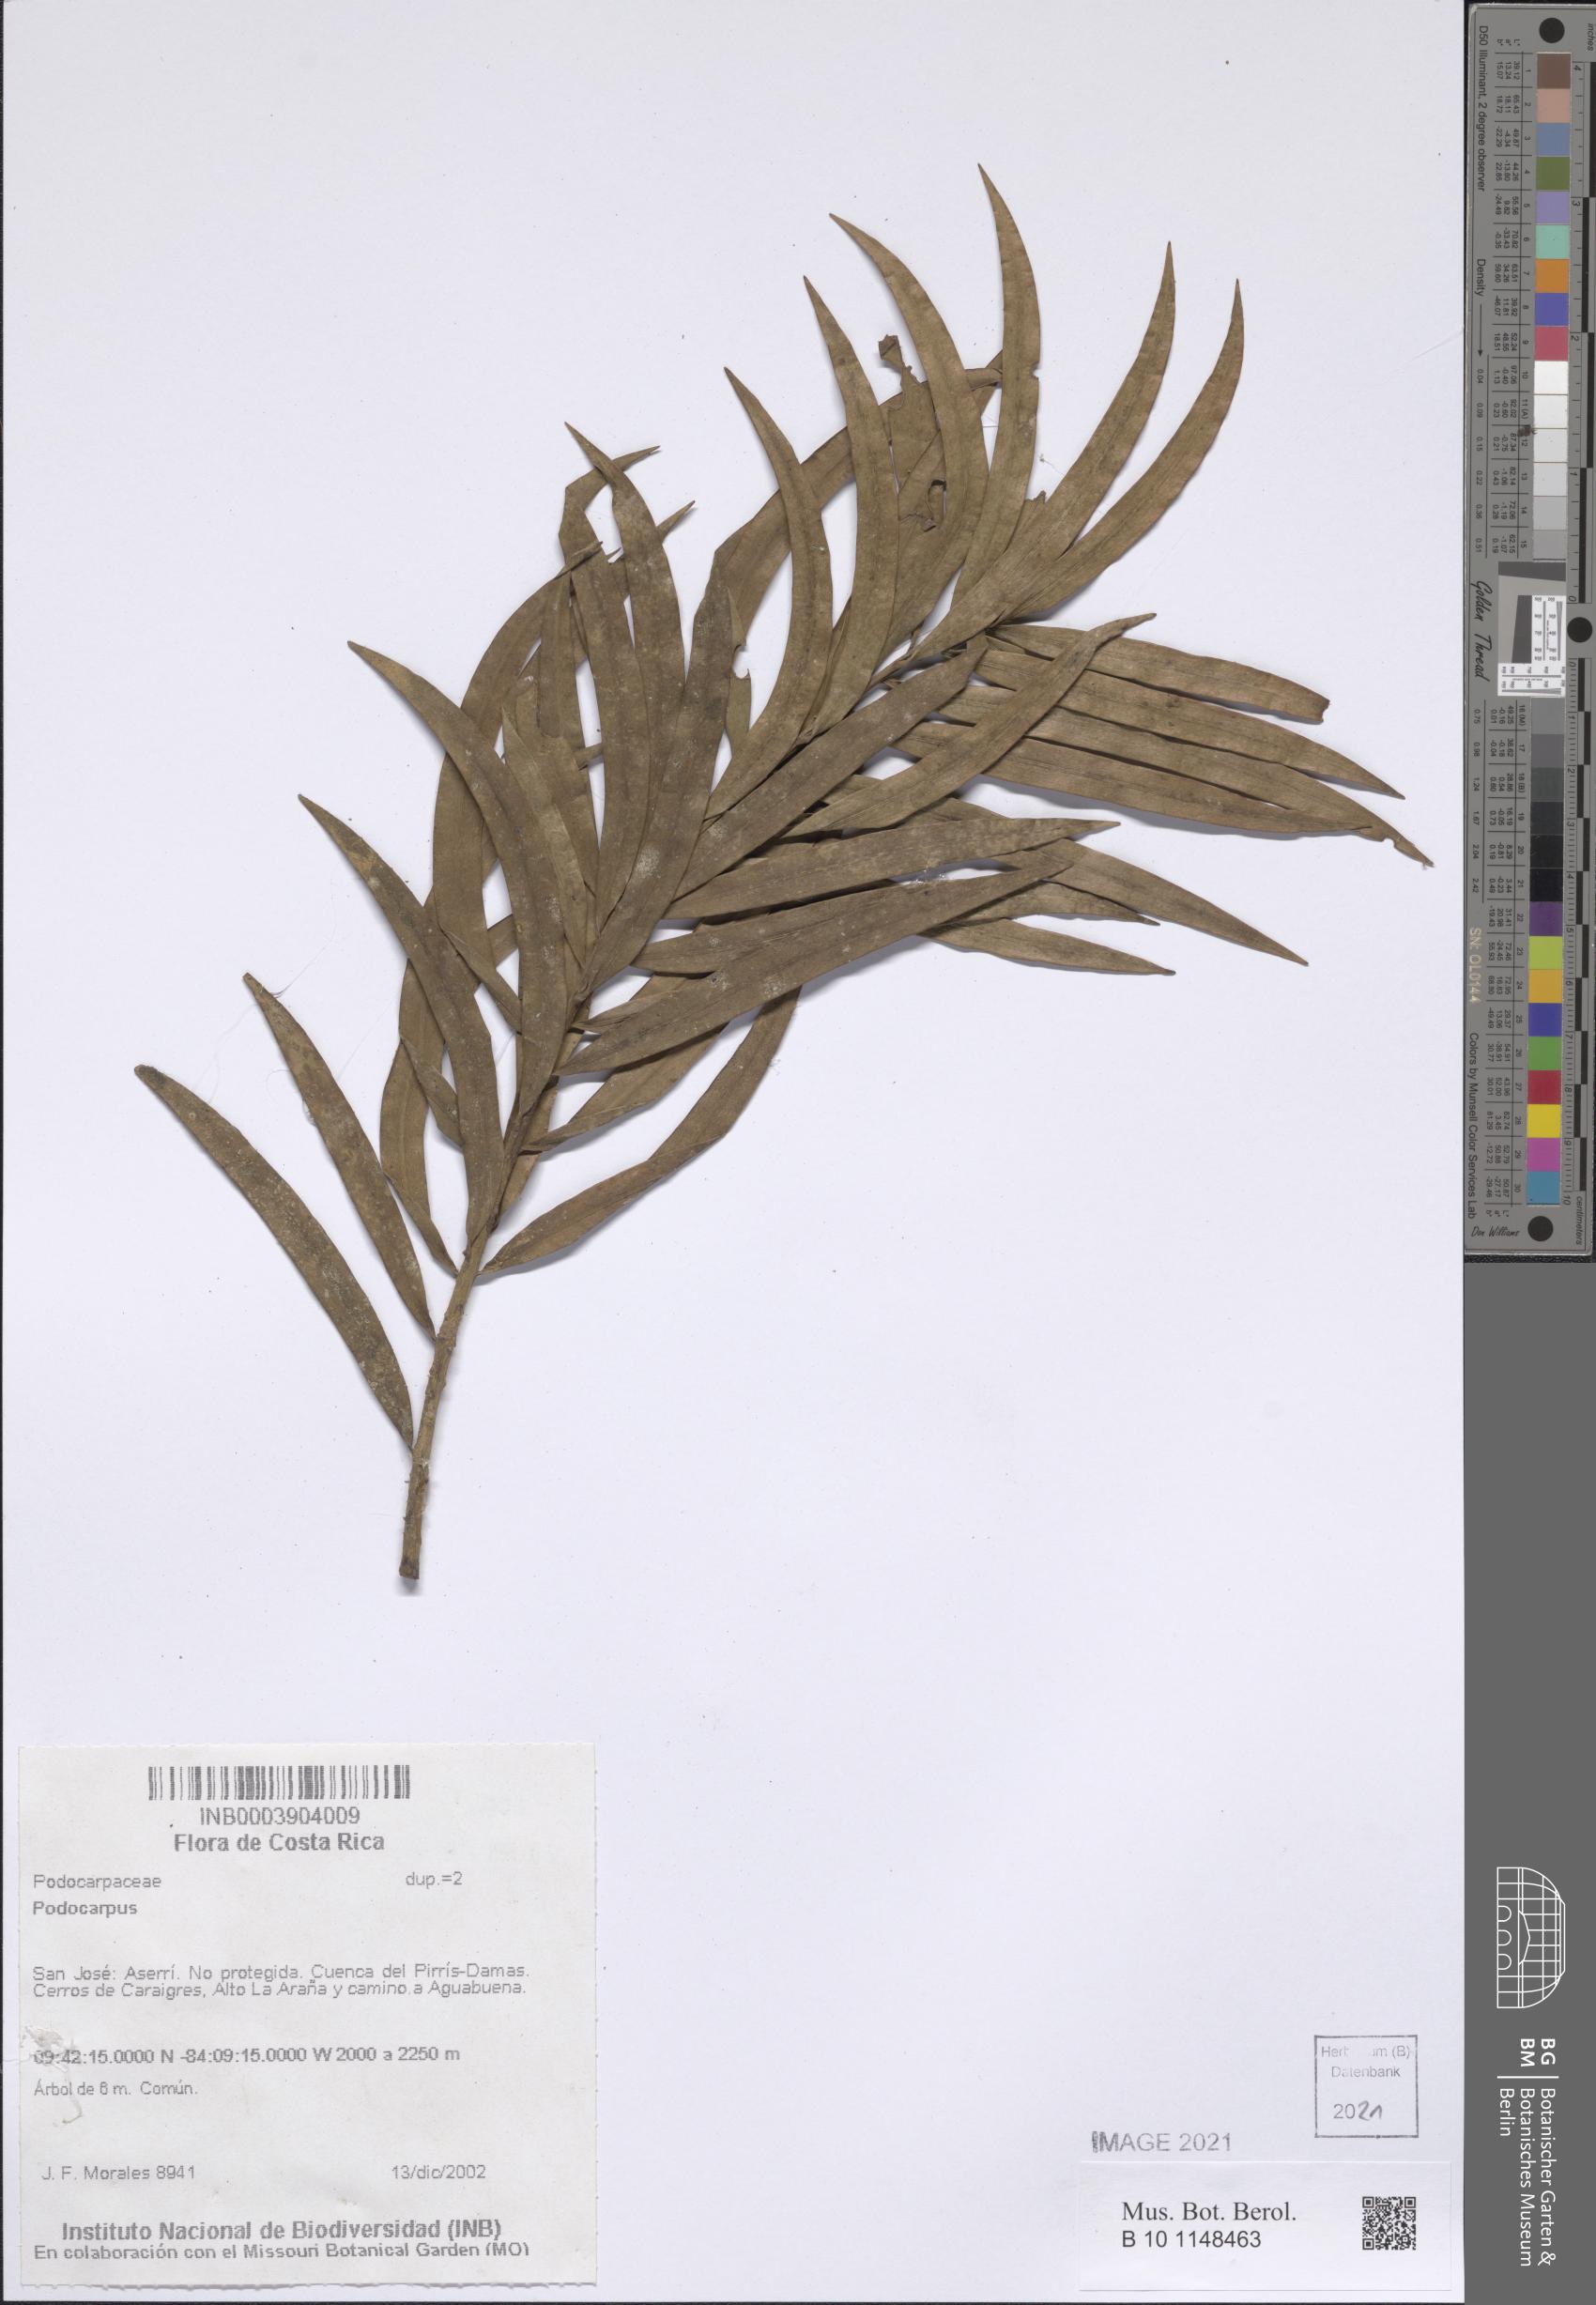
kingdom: Plantae
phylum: Tracheophyta
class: Pinopsida
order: Pinales
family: Podocarpaceae
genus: Podocarpus
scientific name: Podocarpus
